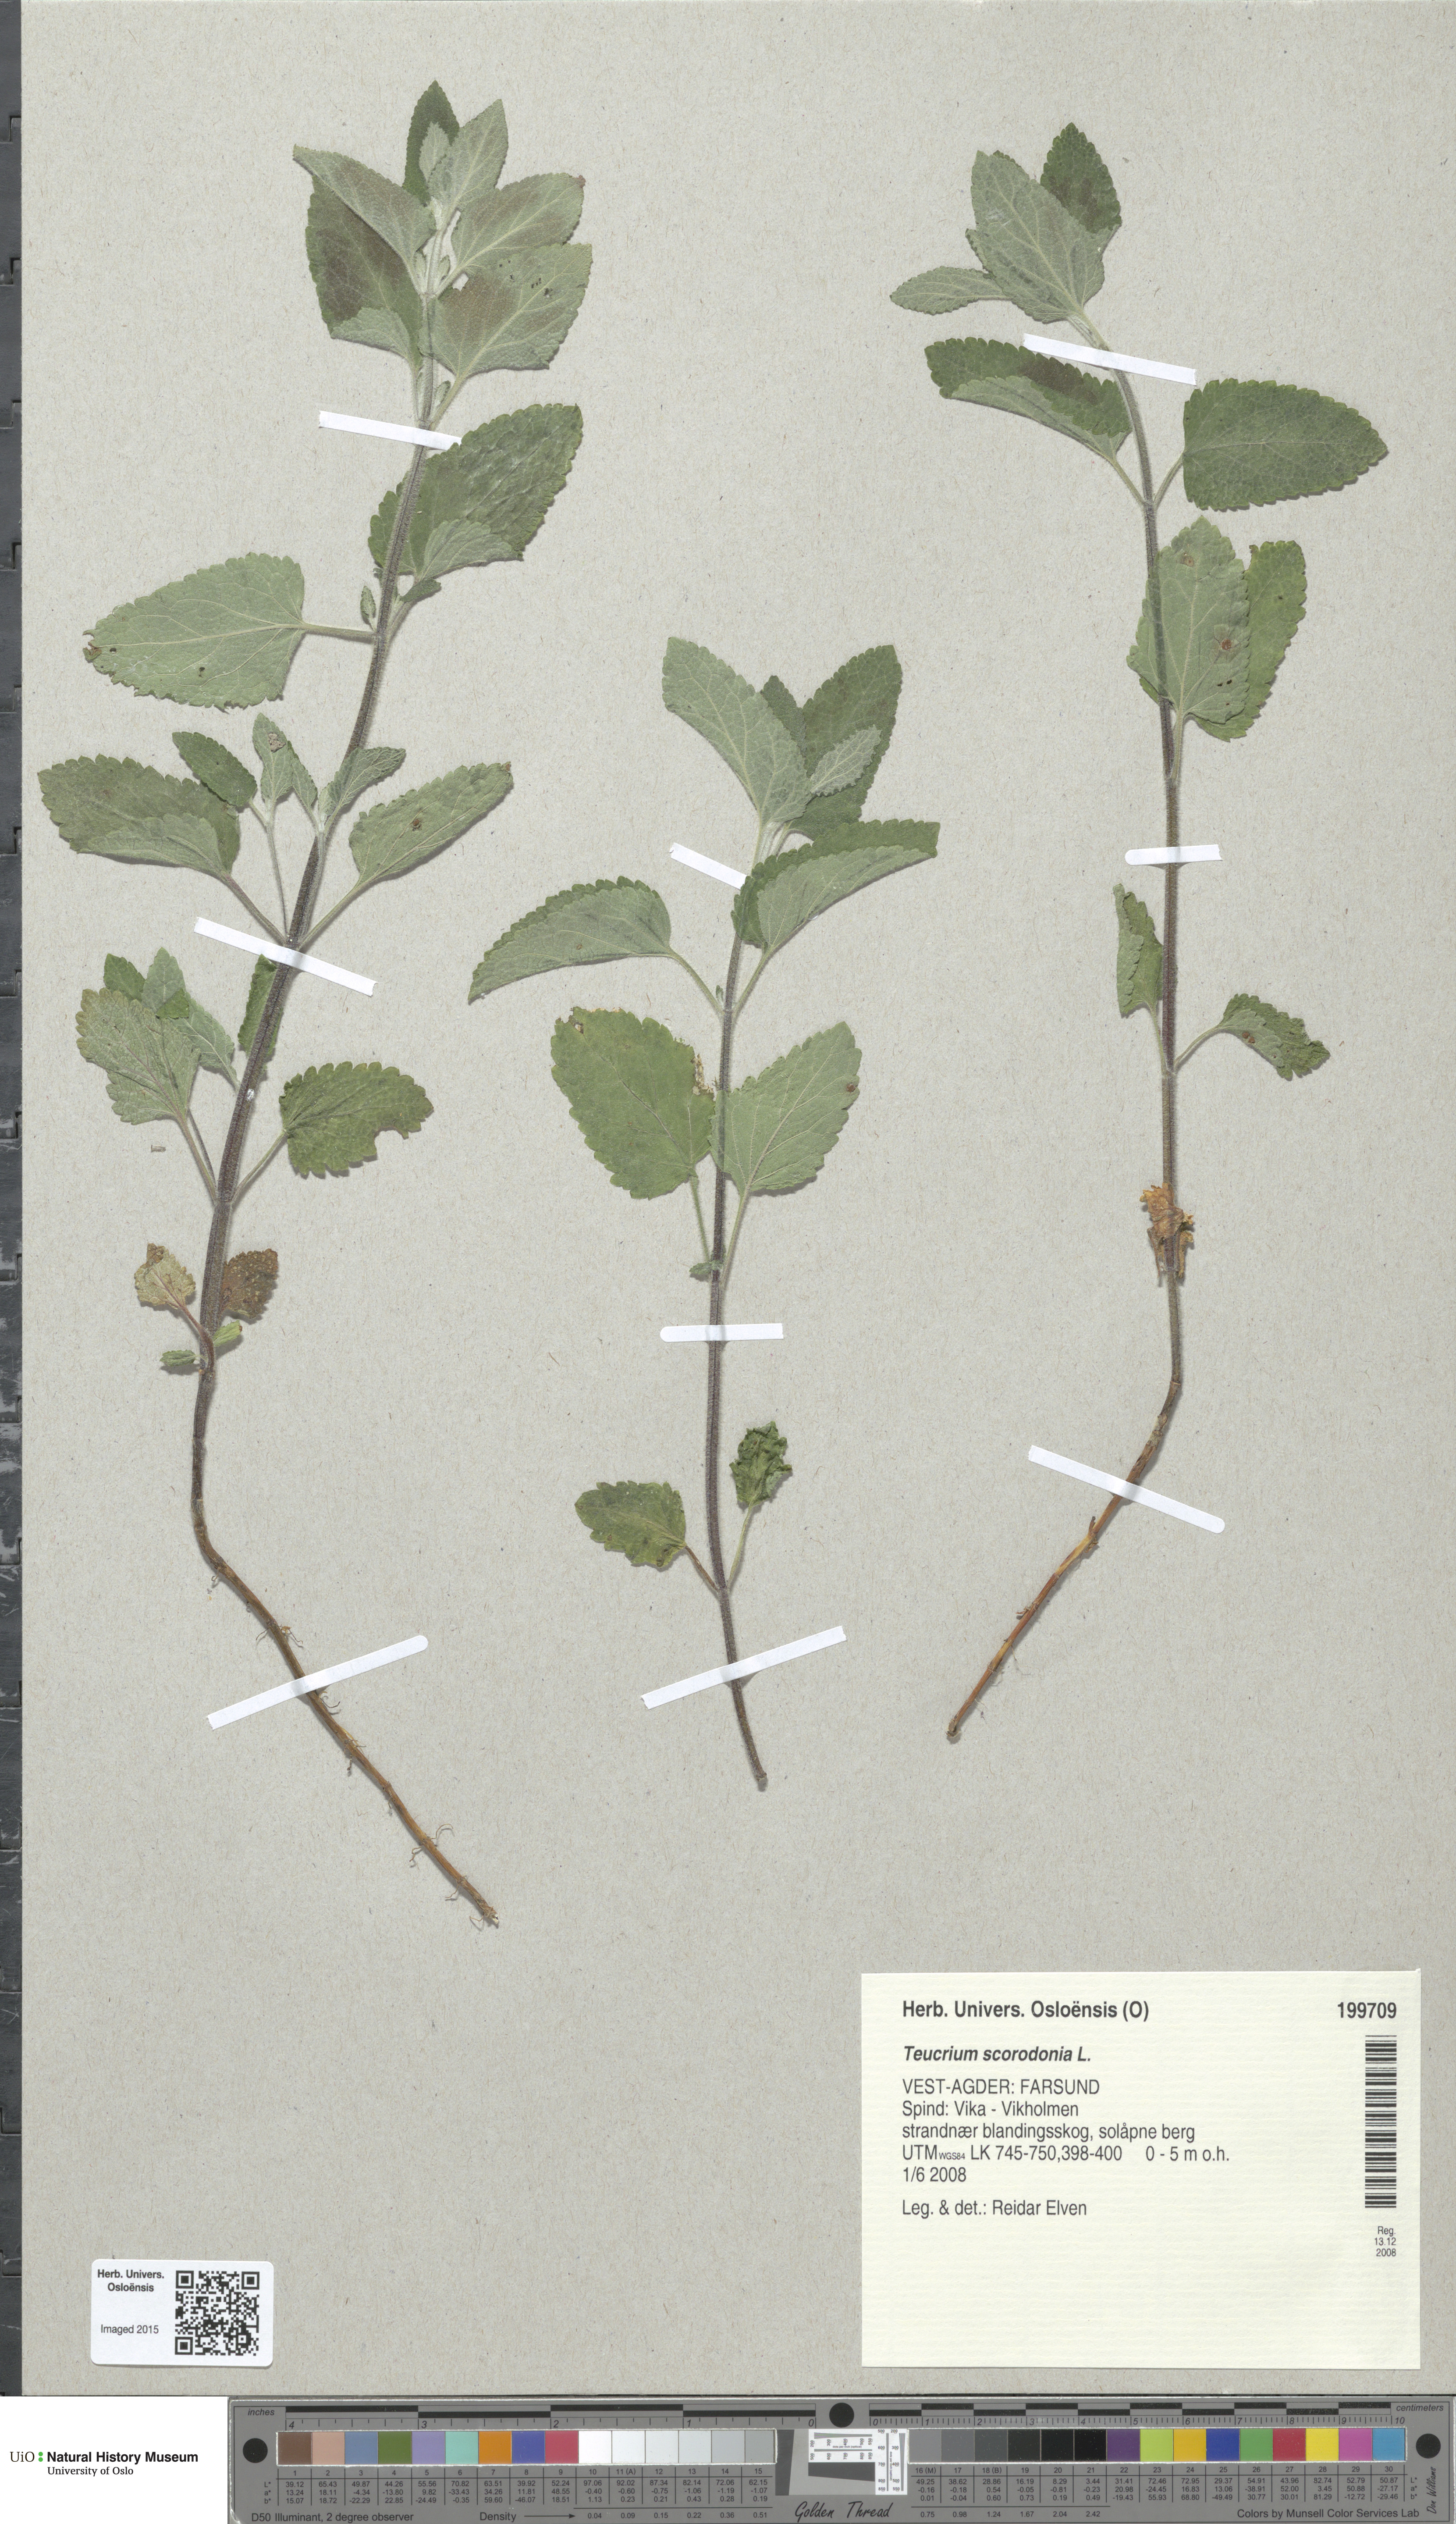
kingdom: Plantae
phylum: Tracheophyta
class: Magnoliopsida
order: Lamiales
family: Lamiaceae
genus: Teucrium
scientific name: Teucrium scorodonia
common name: Woodland germander
